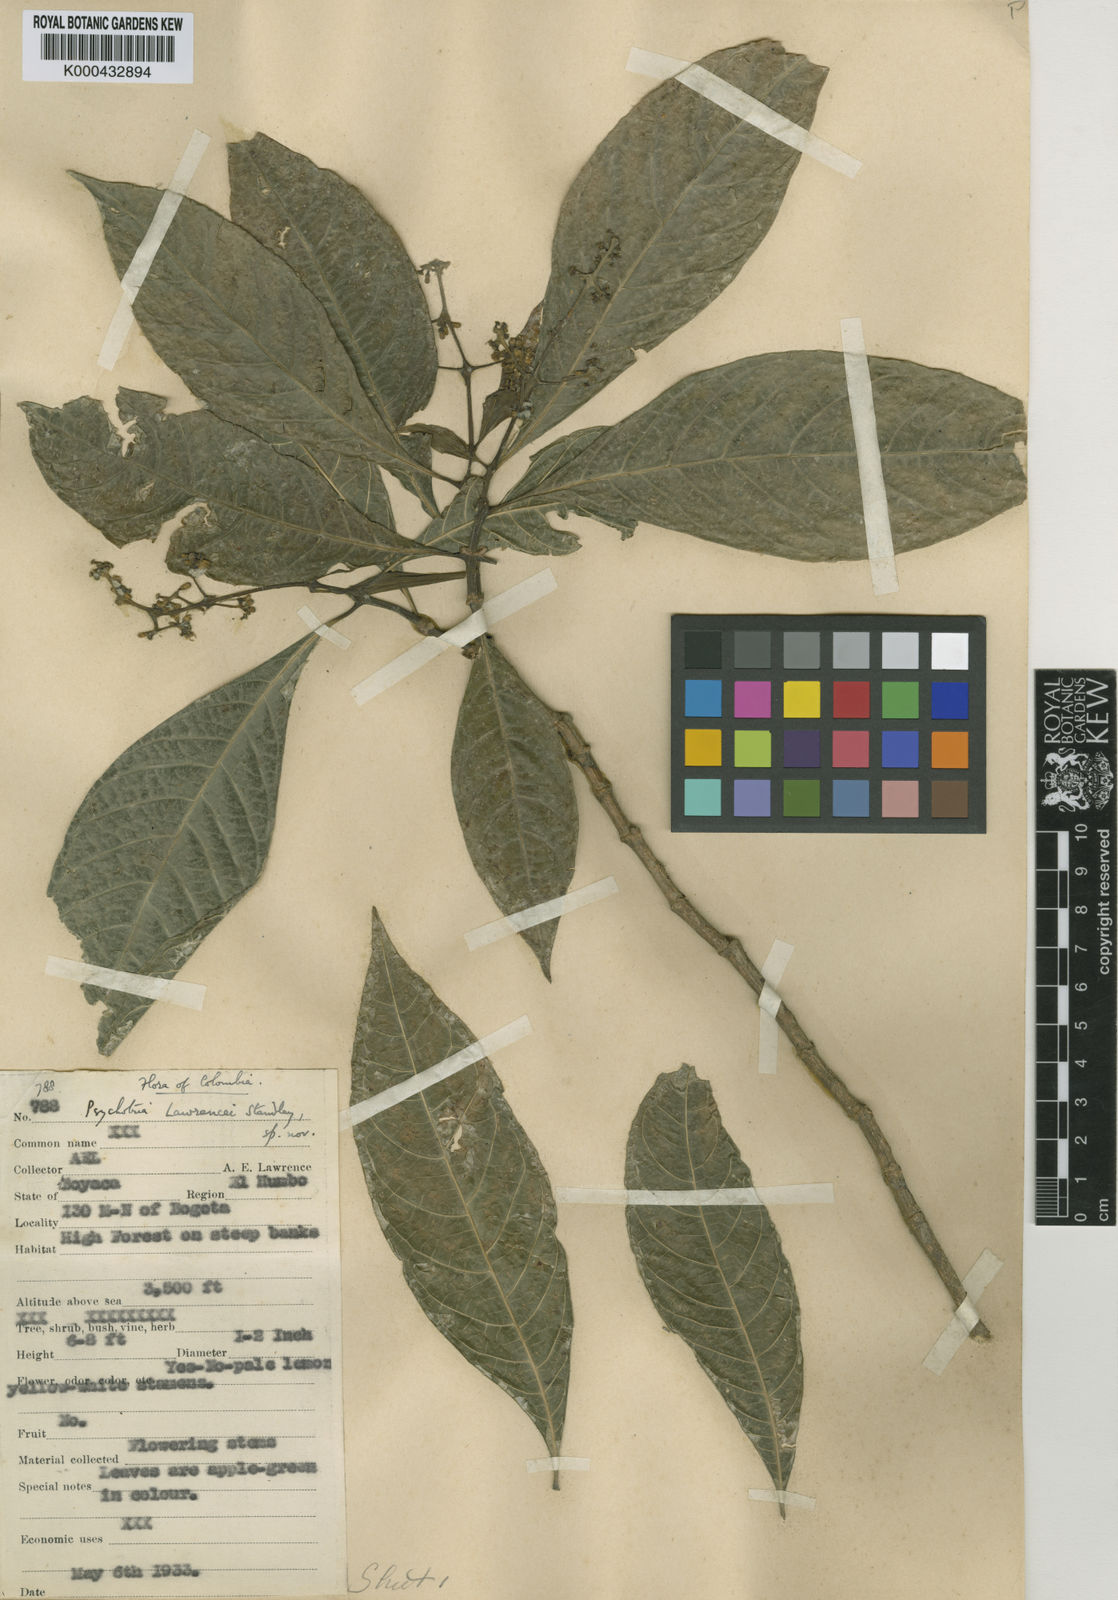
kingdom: Plantae
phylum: Tracheophyta
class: Magnoliopsida
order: Gentianales
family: Rubiaceae
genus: Eumachia
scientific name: Eumachia boliviana
